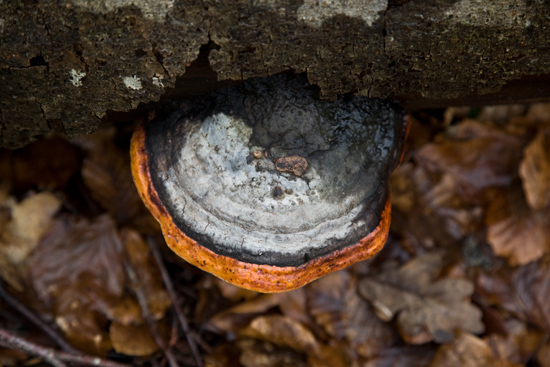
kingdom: Fungi
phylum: Basidiomycota
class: Agaricomycetes
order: Polyporales
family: Fomitopsidaceae
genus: Fomitopsis
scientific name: Fomitopsis pinicola
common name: randbæltet hovporesvamp
